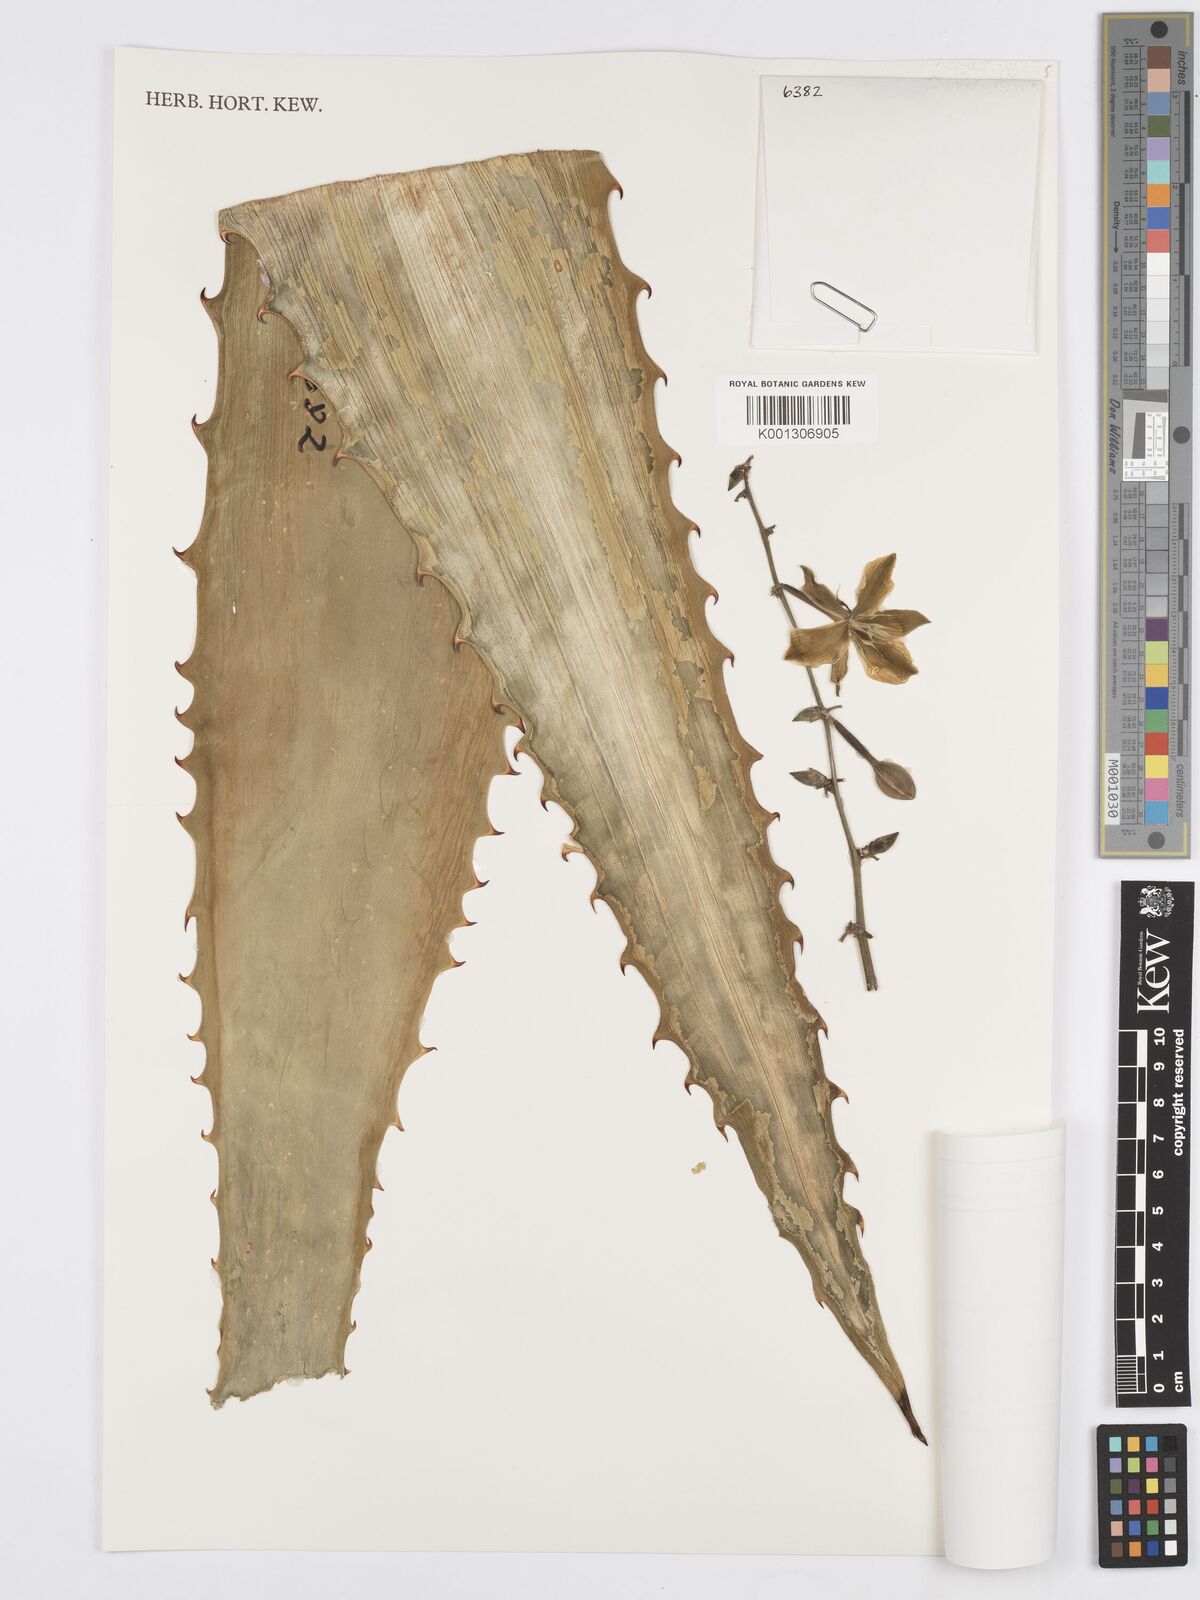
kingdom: Plantae
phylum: Tracheophyta
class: Liliopsida
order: Asparagales
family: Asparagaceae
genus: Furcraea
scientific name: Furcraea guatemalensis
